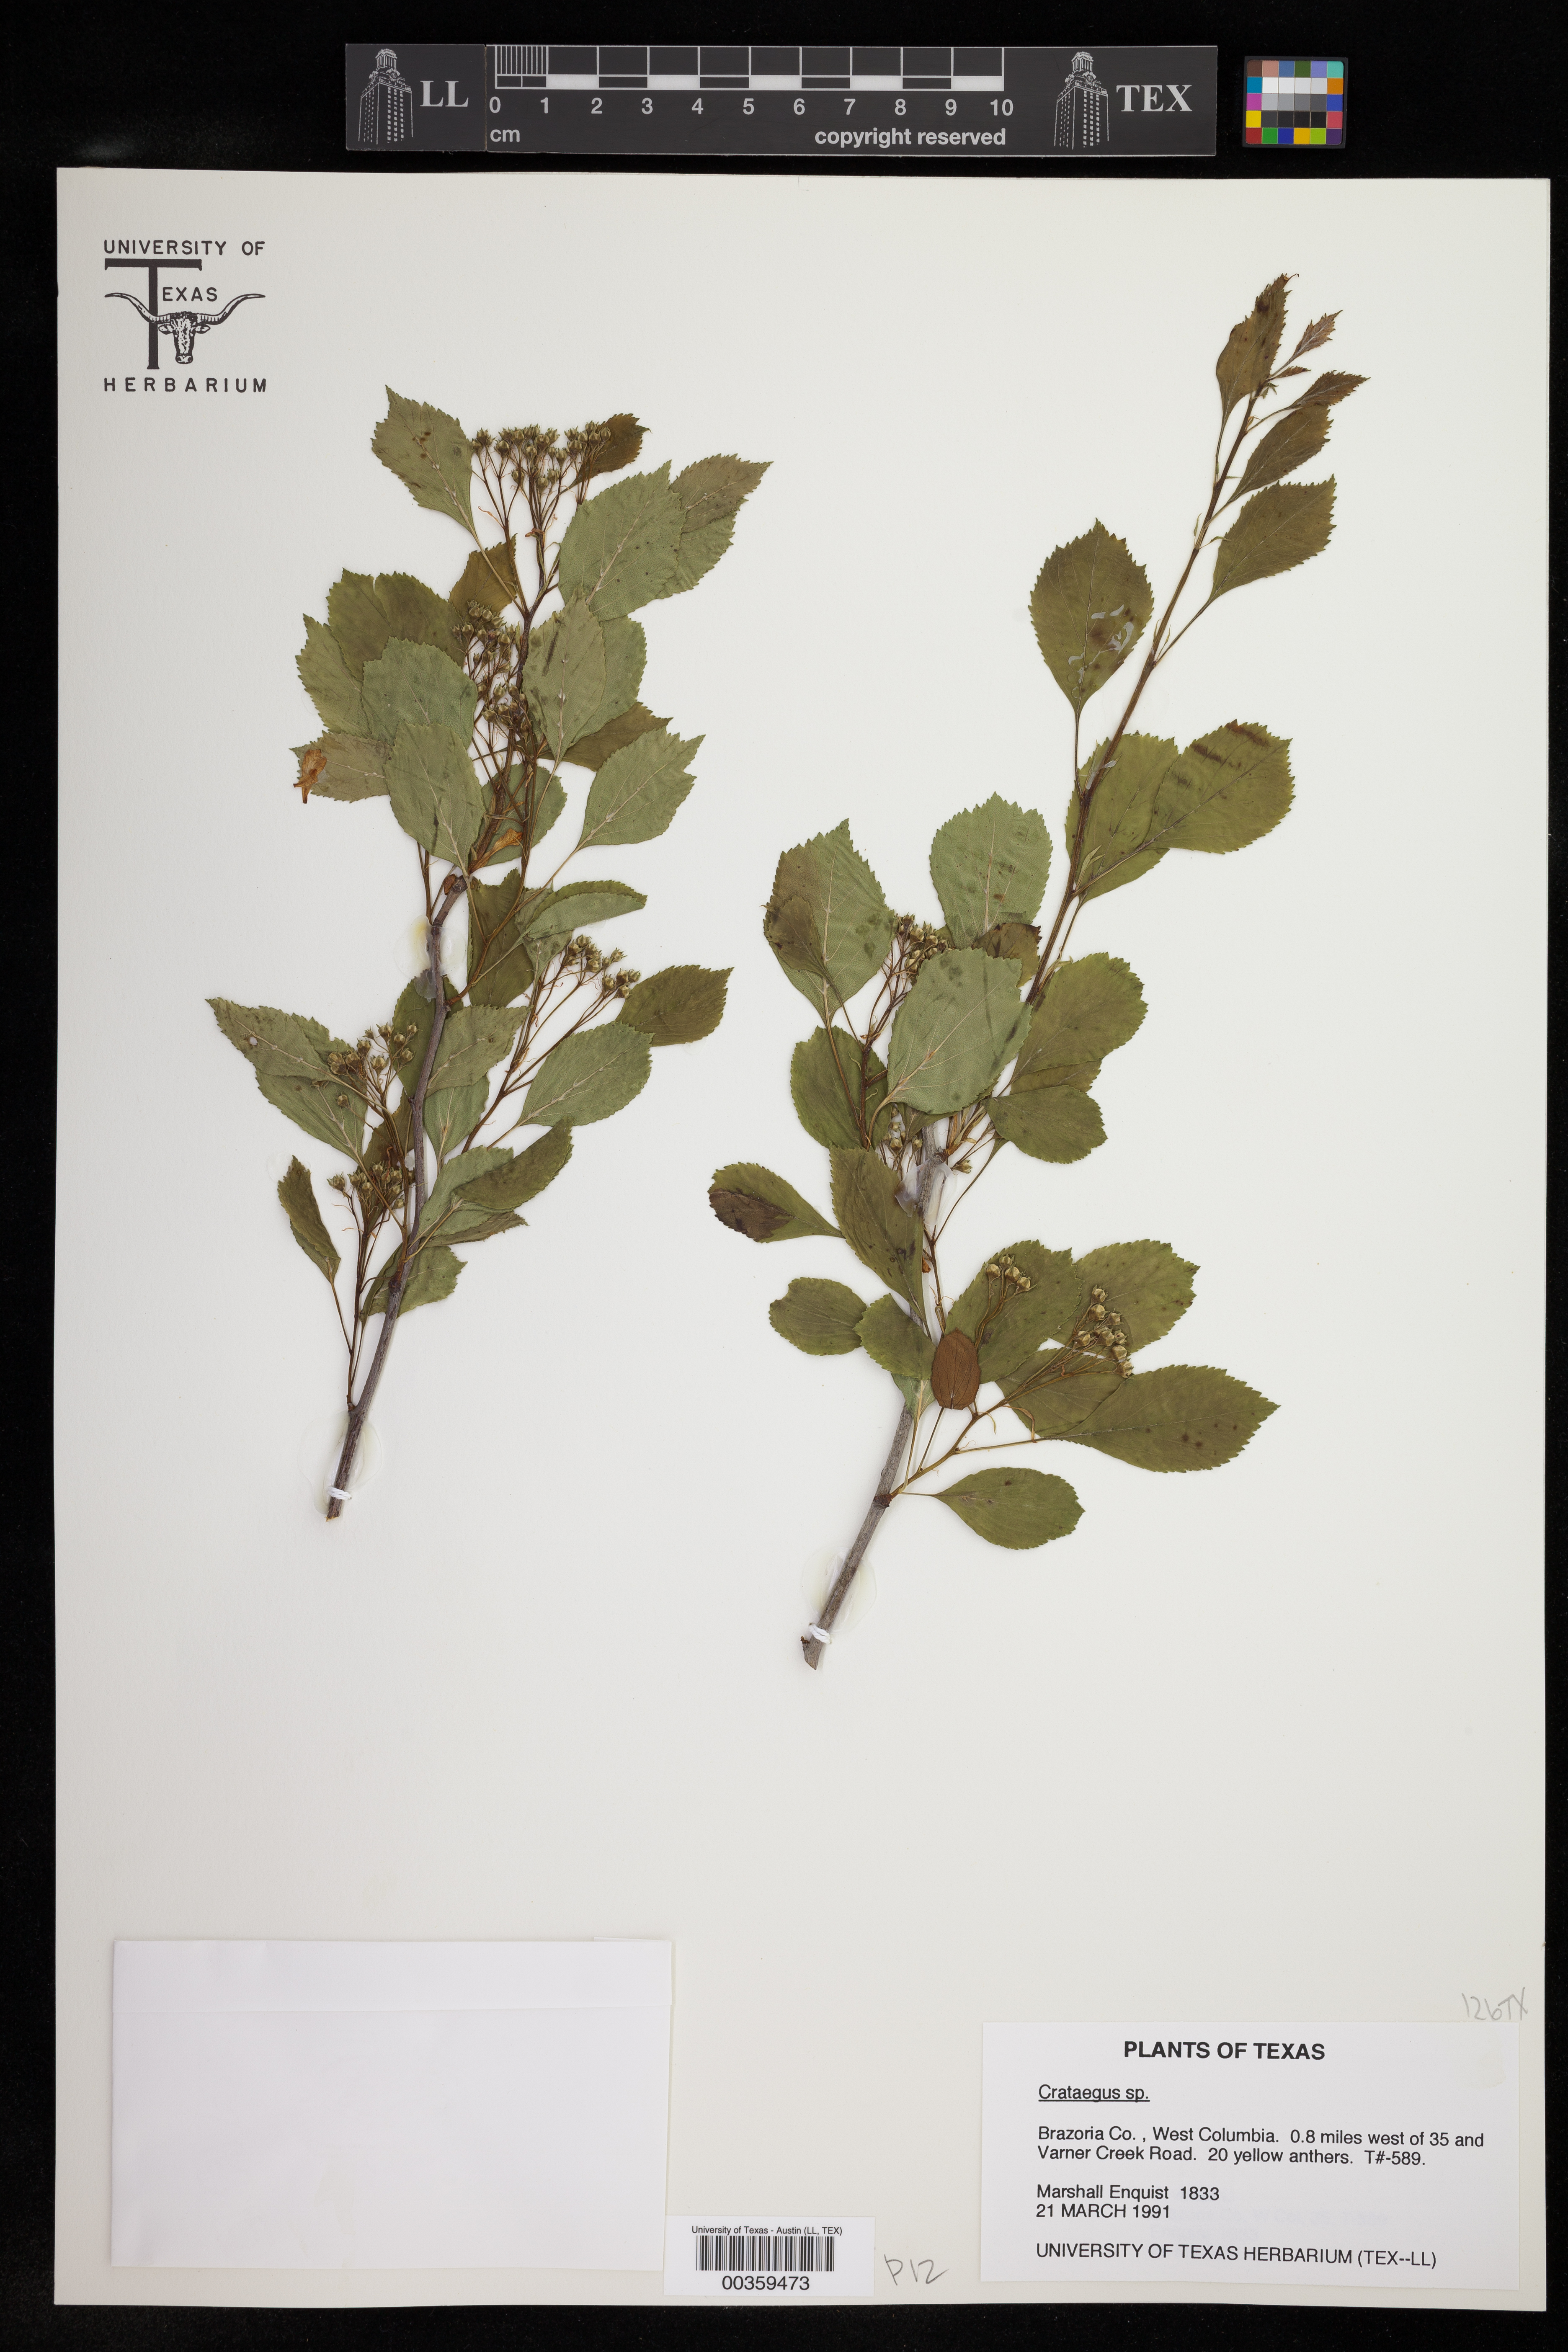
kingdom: Plantae
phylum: Tracheophyta
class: Magnoliopsida
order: Rosales
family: Rosaceae
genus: Crataegus
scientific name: Crataegus
